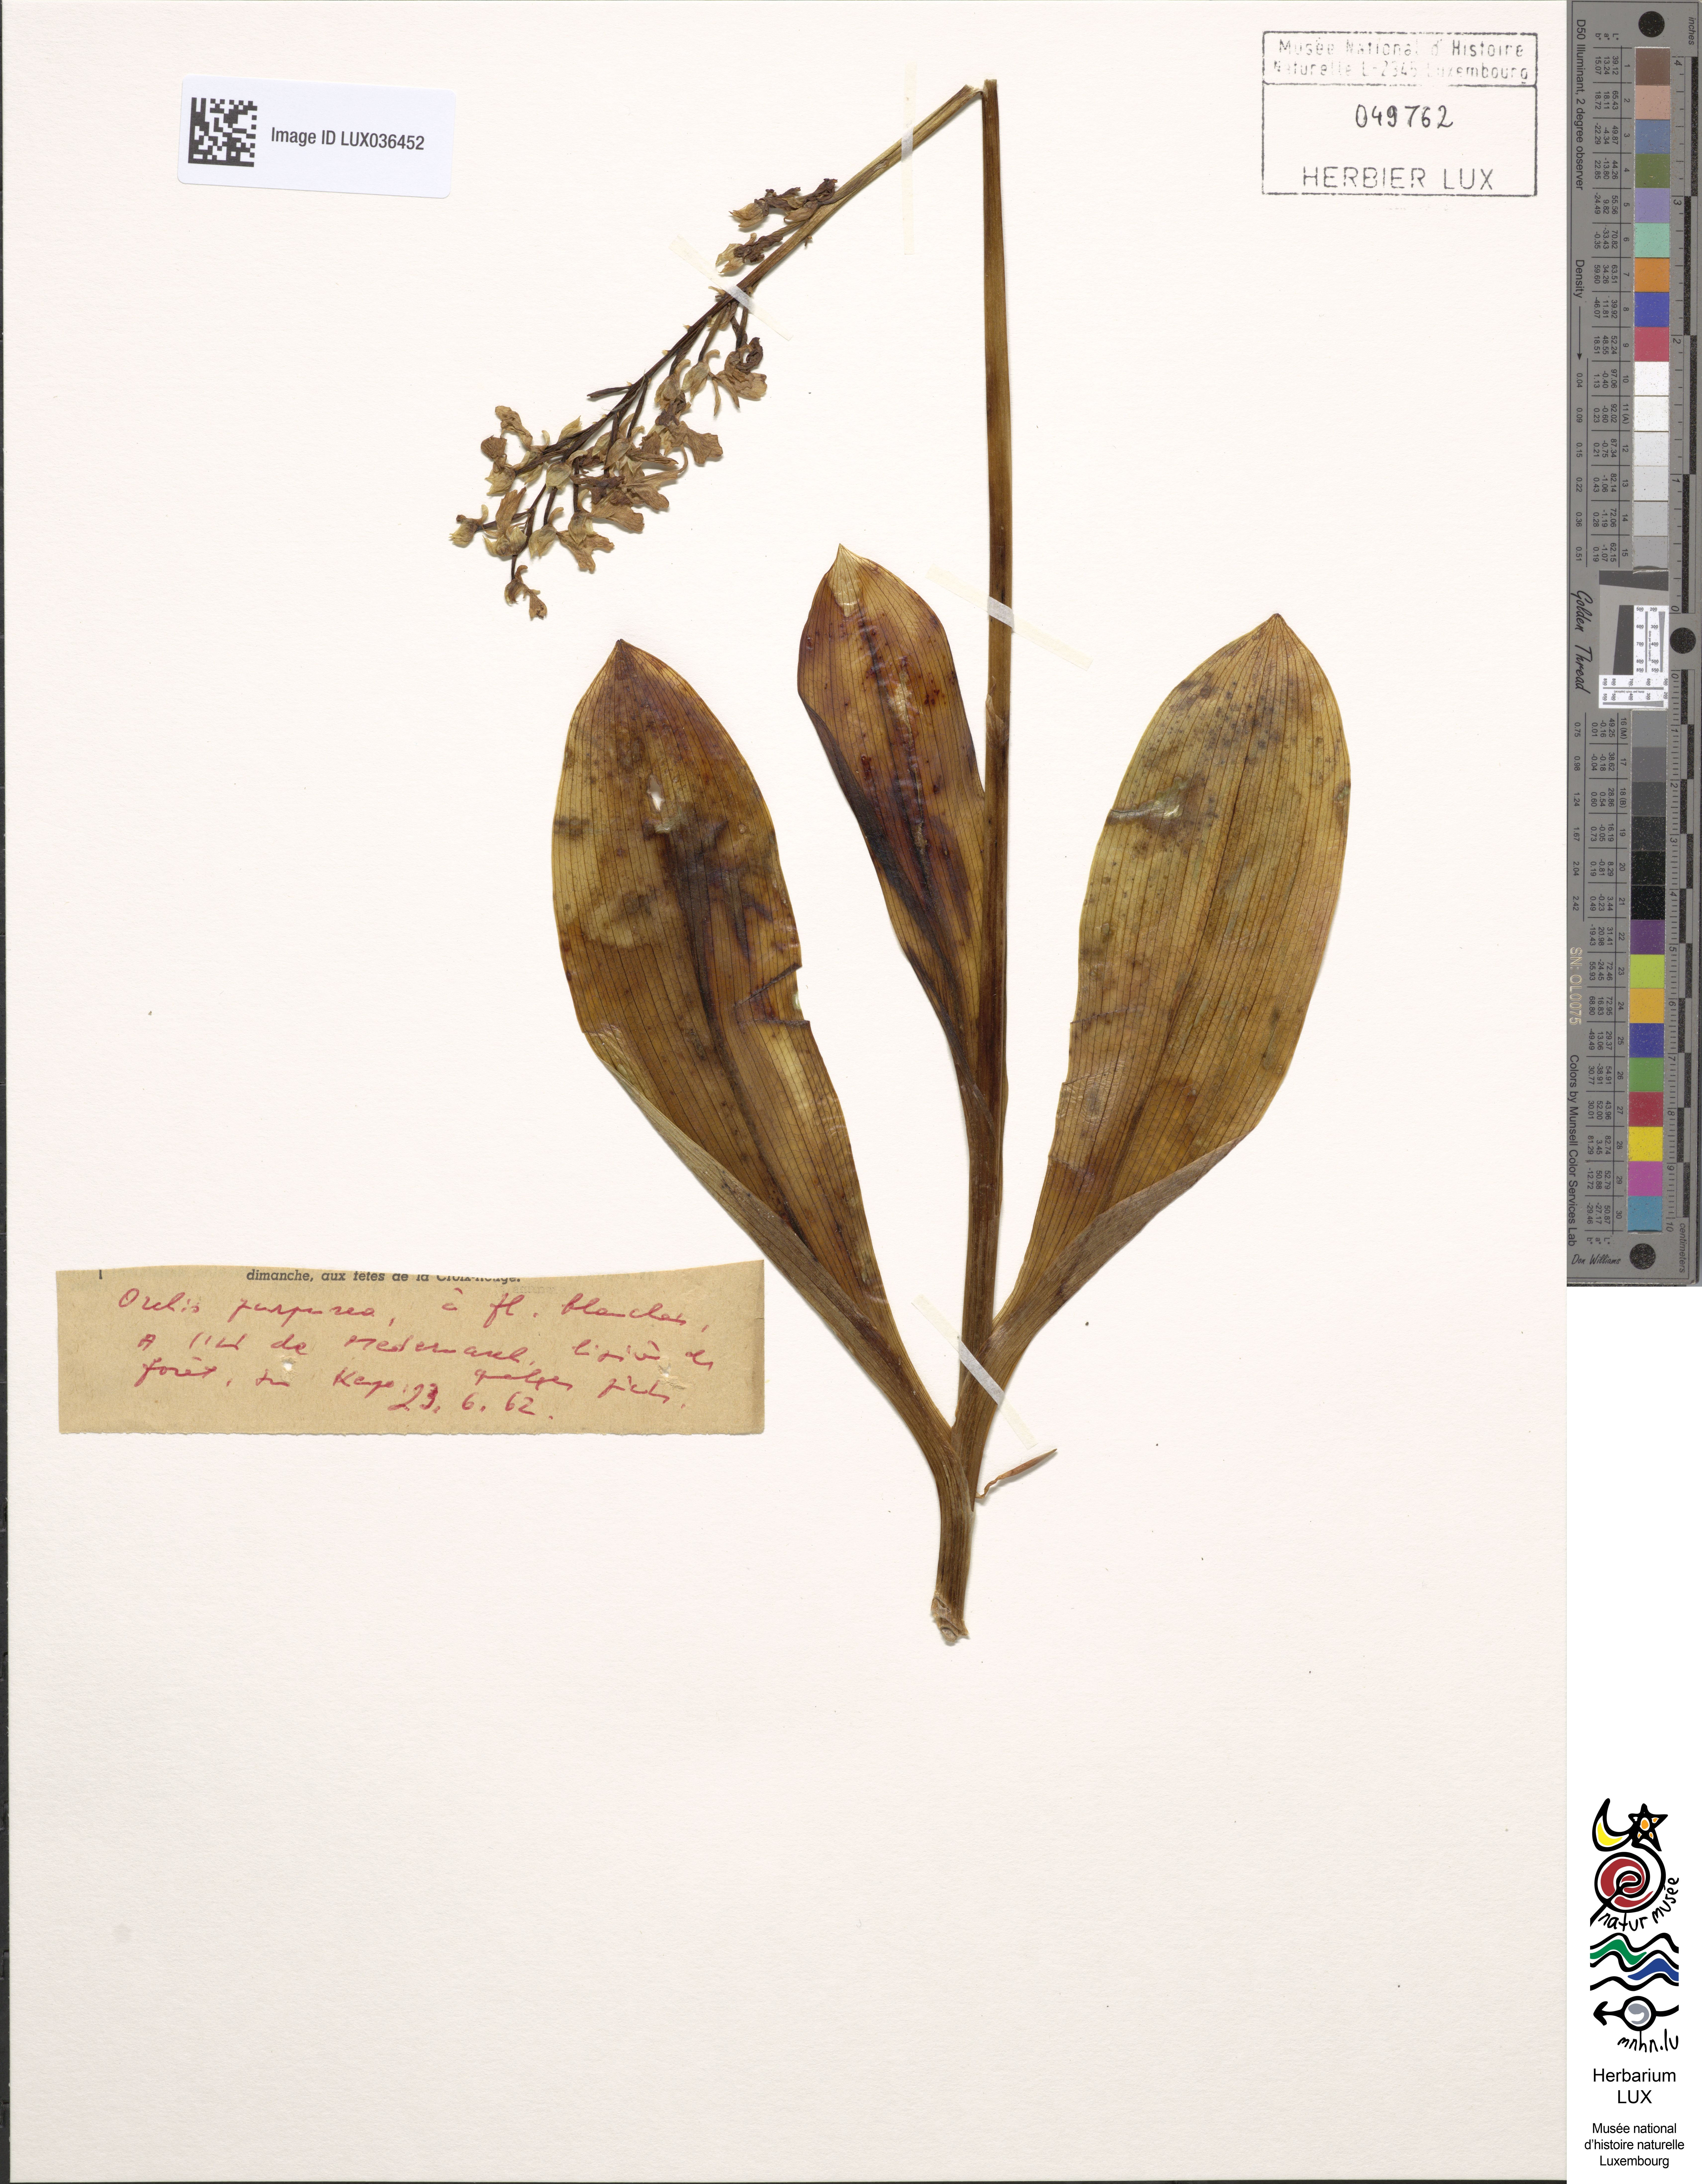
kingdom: Plantae
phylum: Tracheophyta
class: Liliopsida
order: Asparagales
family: Orchidaceae
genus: Orchis
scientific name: Orchis purpurea
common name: Lady orchid
